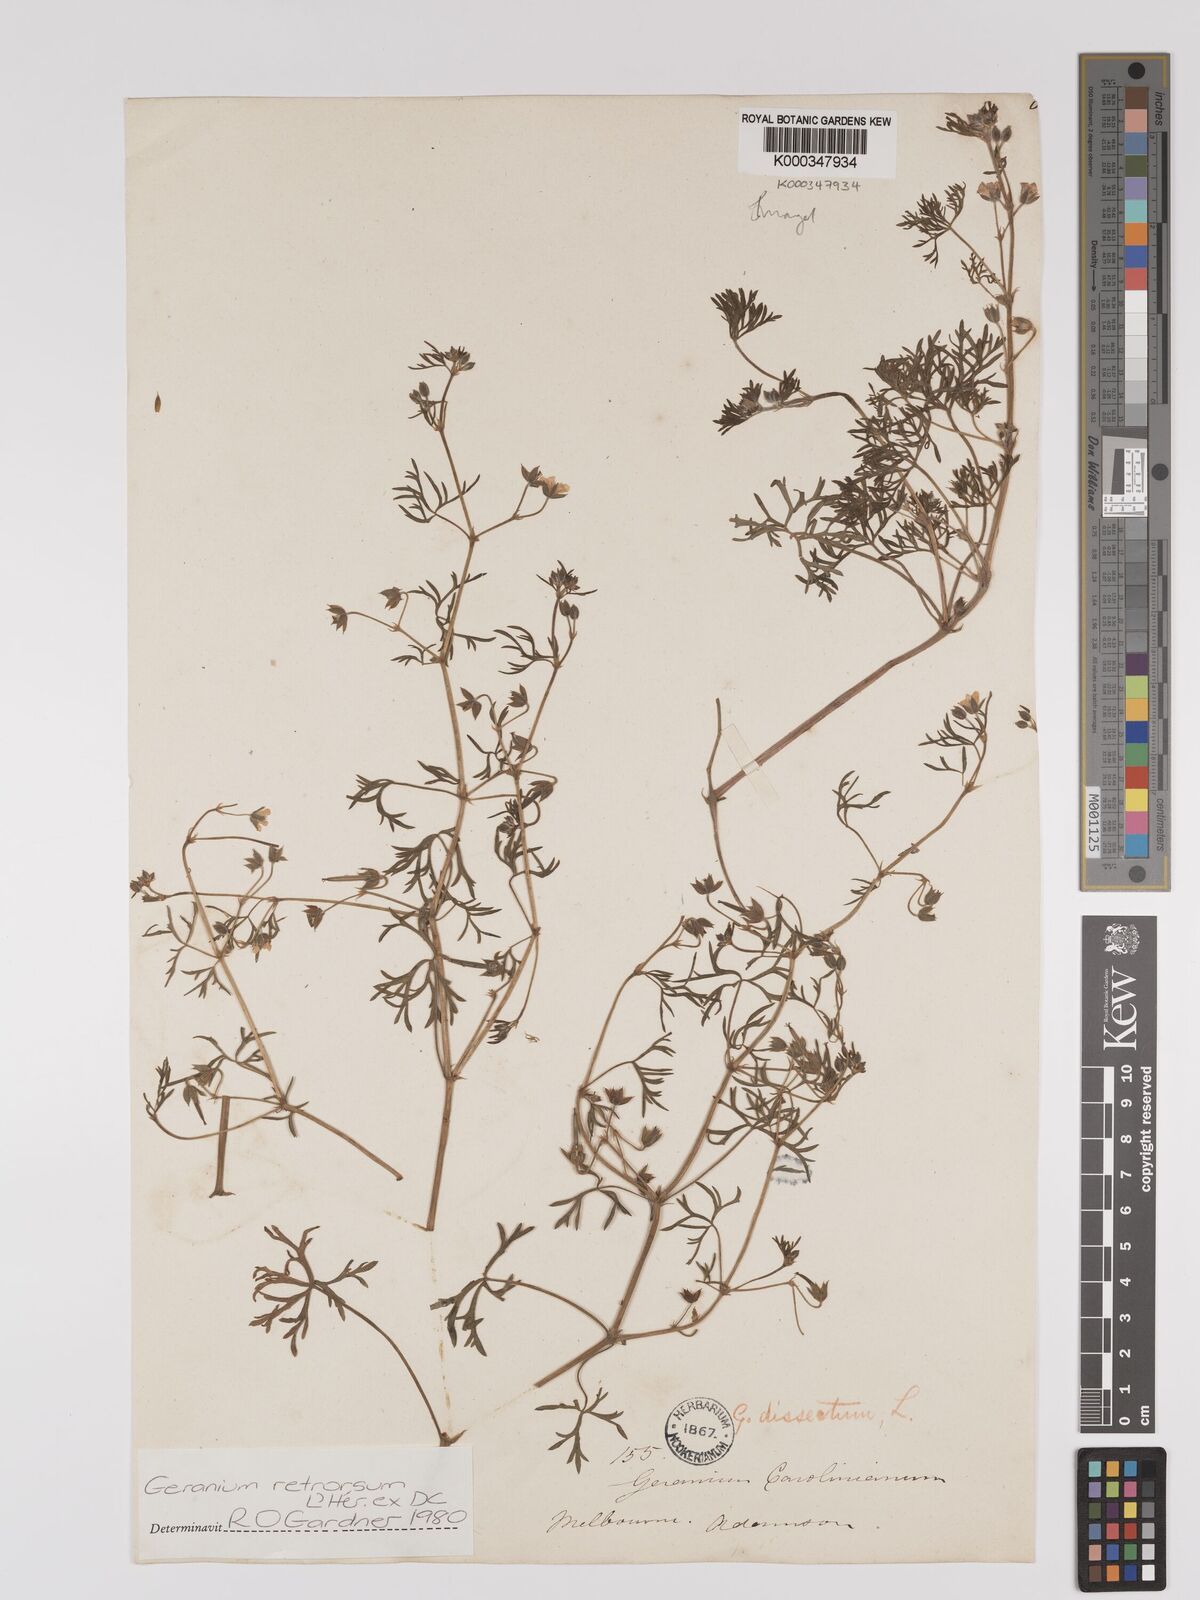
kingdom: Plantae
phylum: Tracheophyta
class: Magnoliopsida
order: Geraniales
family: Geraniaceae
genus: Geranium
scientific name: Geranium retrorsum
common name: New zealand geranium
